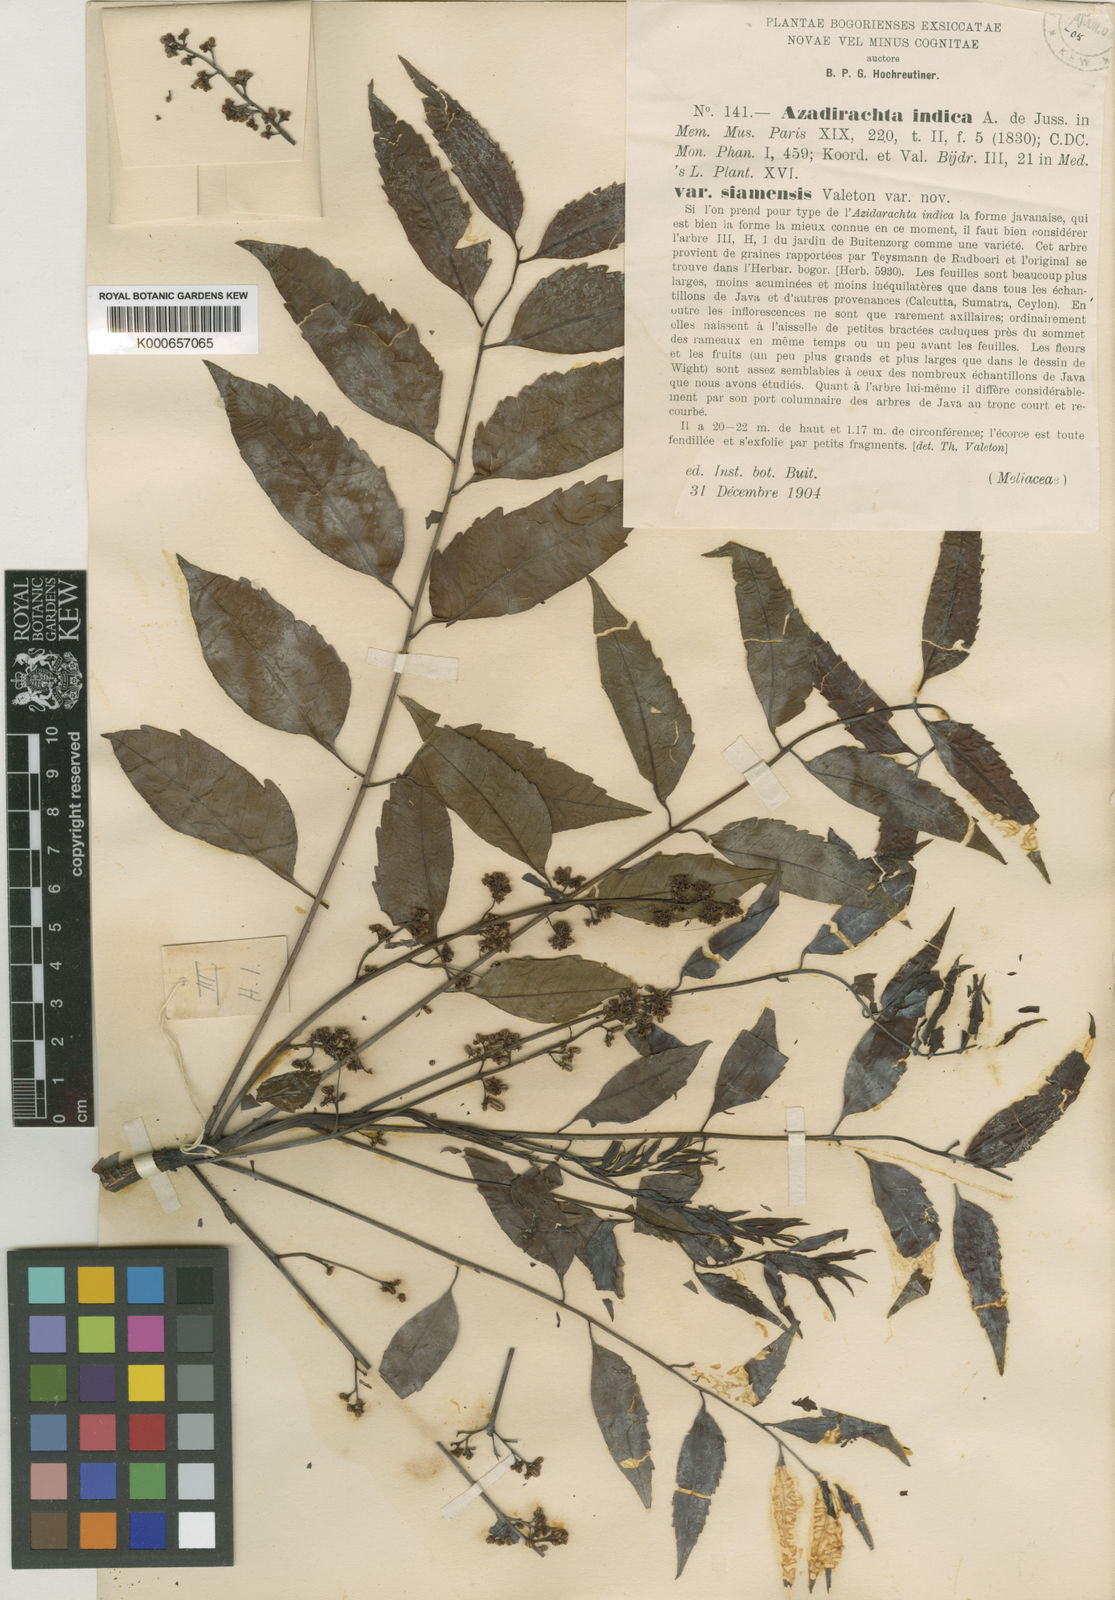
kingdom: Plantae
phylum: Tracheophyta
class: Magnoliopsida
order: Sapindales
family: Meliaceae
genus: Azadirachta
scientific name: Azadirachta indica
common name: Neem
